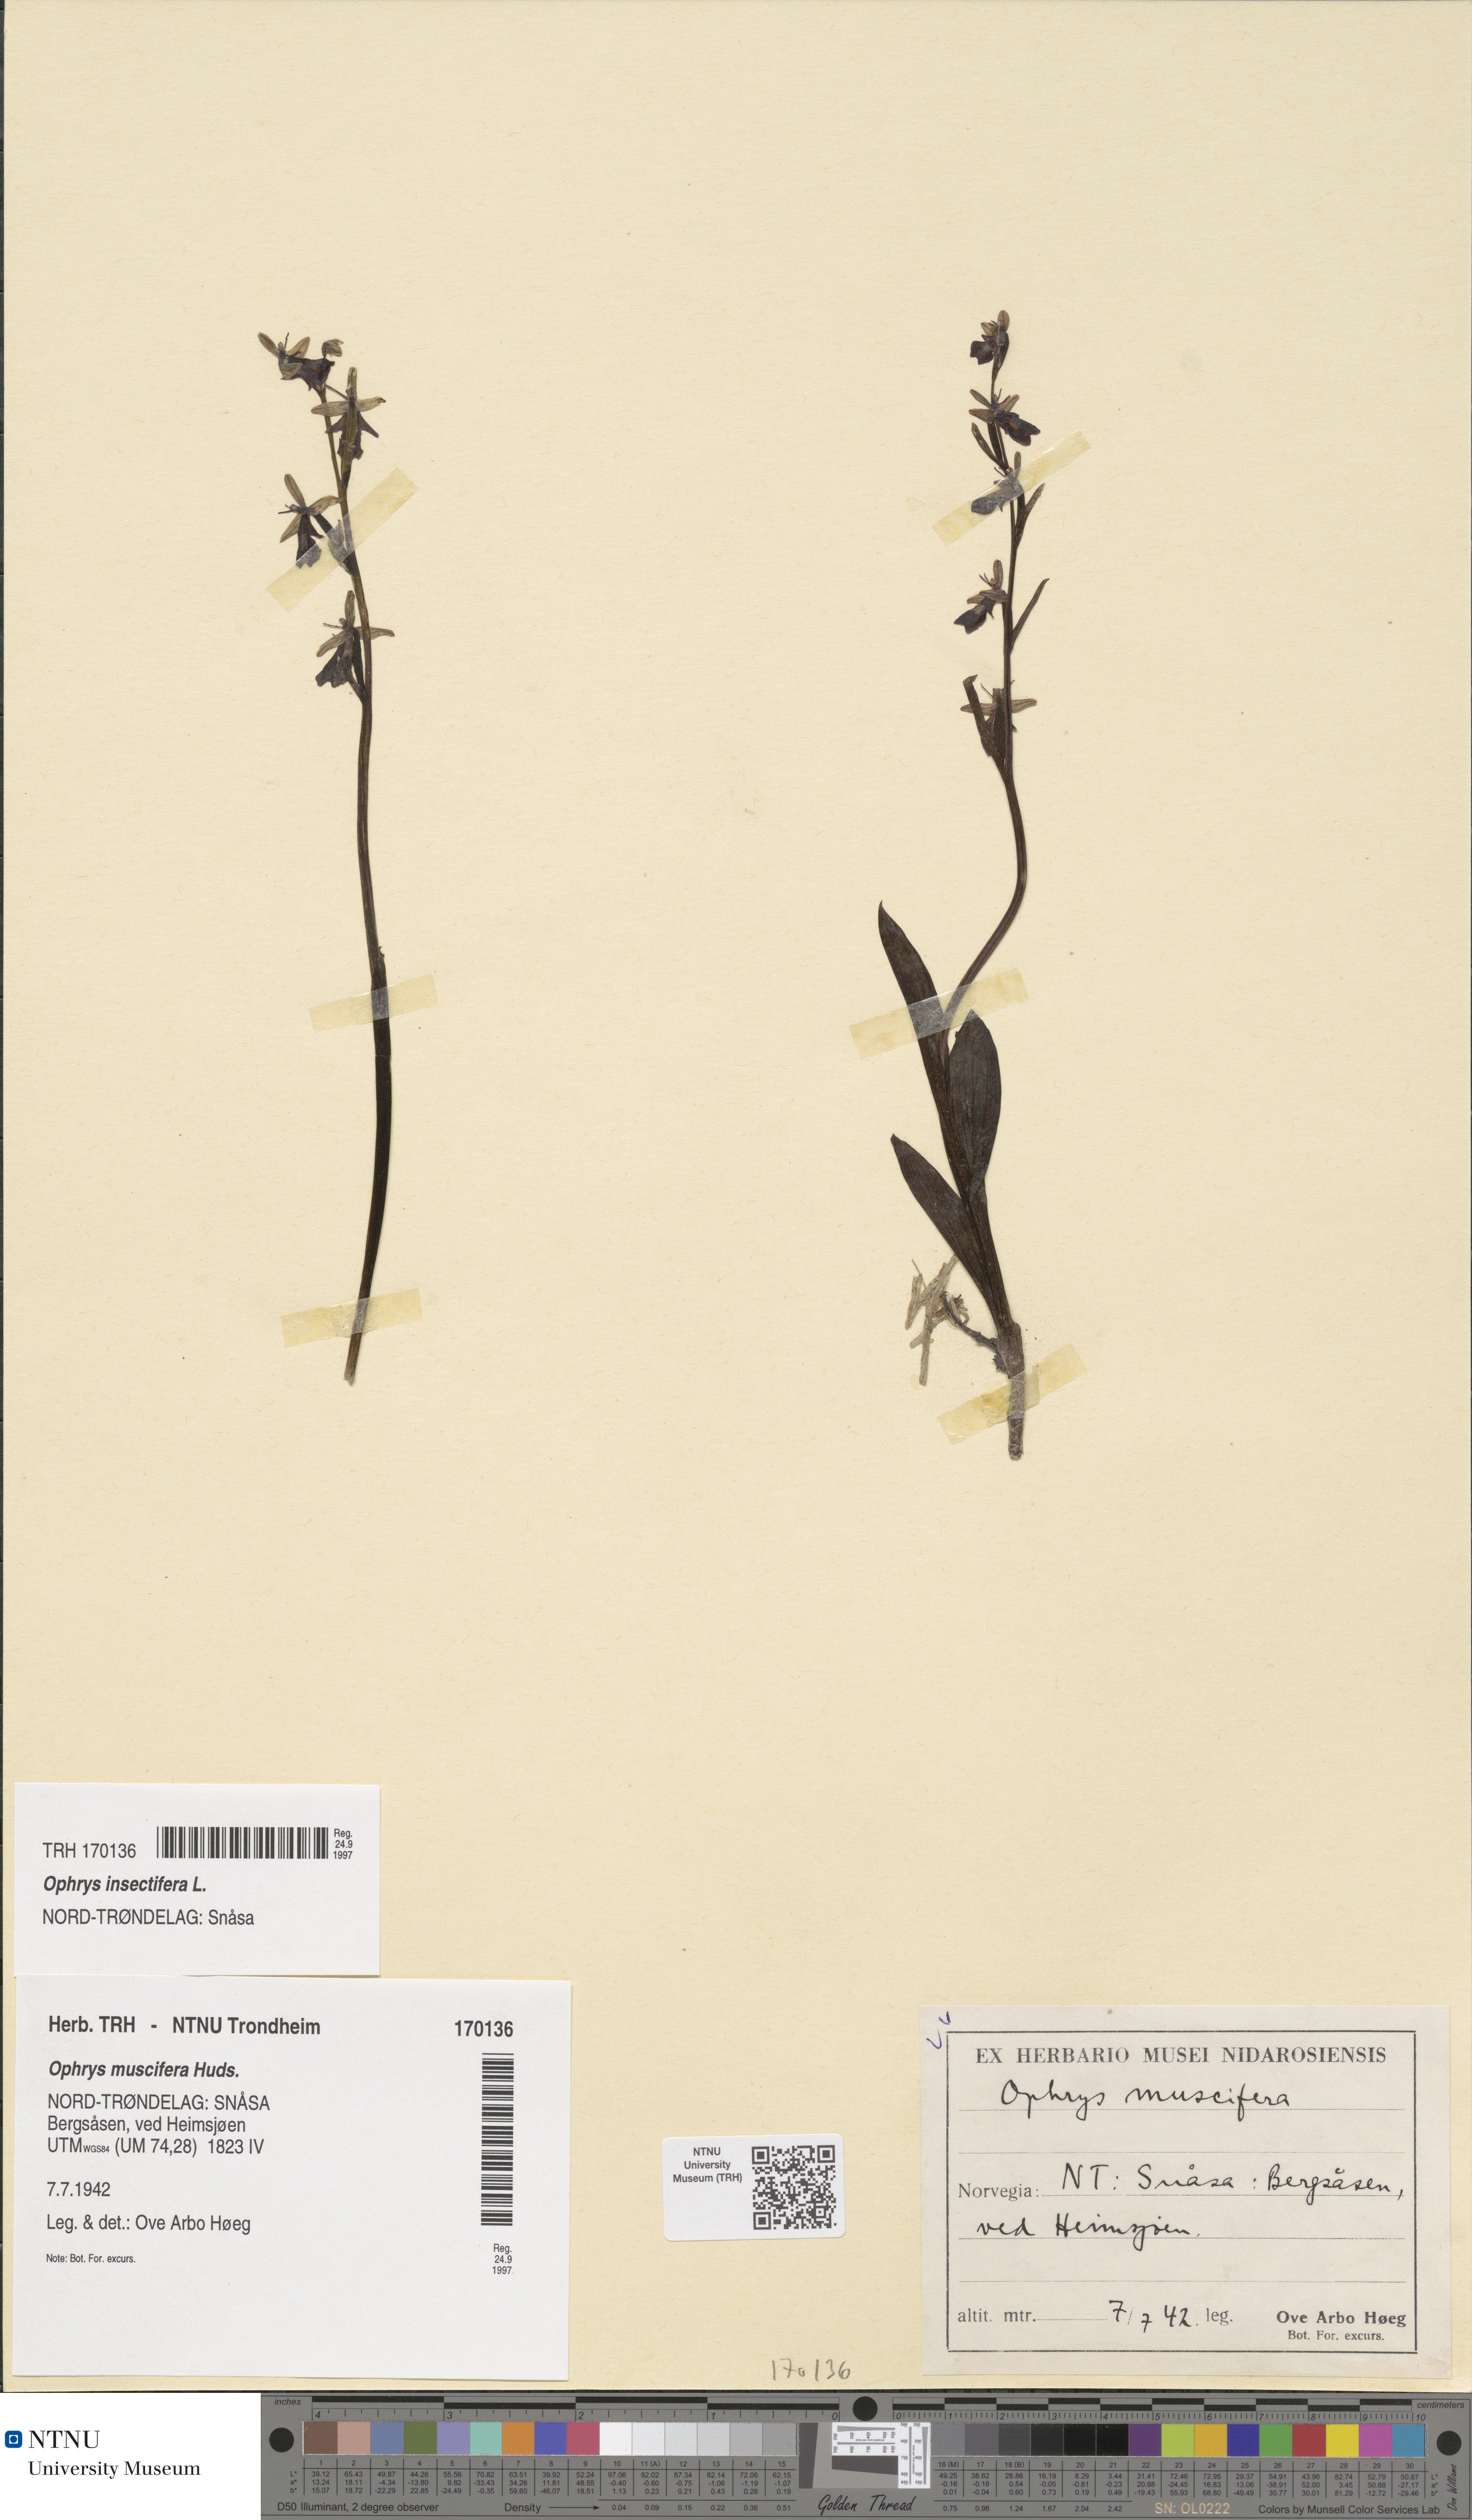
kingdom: Plantae
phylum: Tracheophyta
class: Liliopsida
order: Asparagales
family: Orchidaceae
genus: Ophrys
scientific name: Ophrys insectifera
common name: Fly orchid
